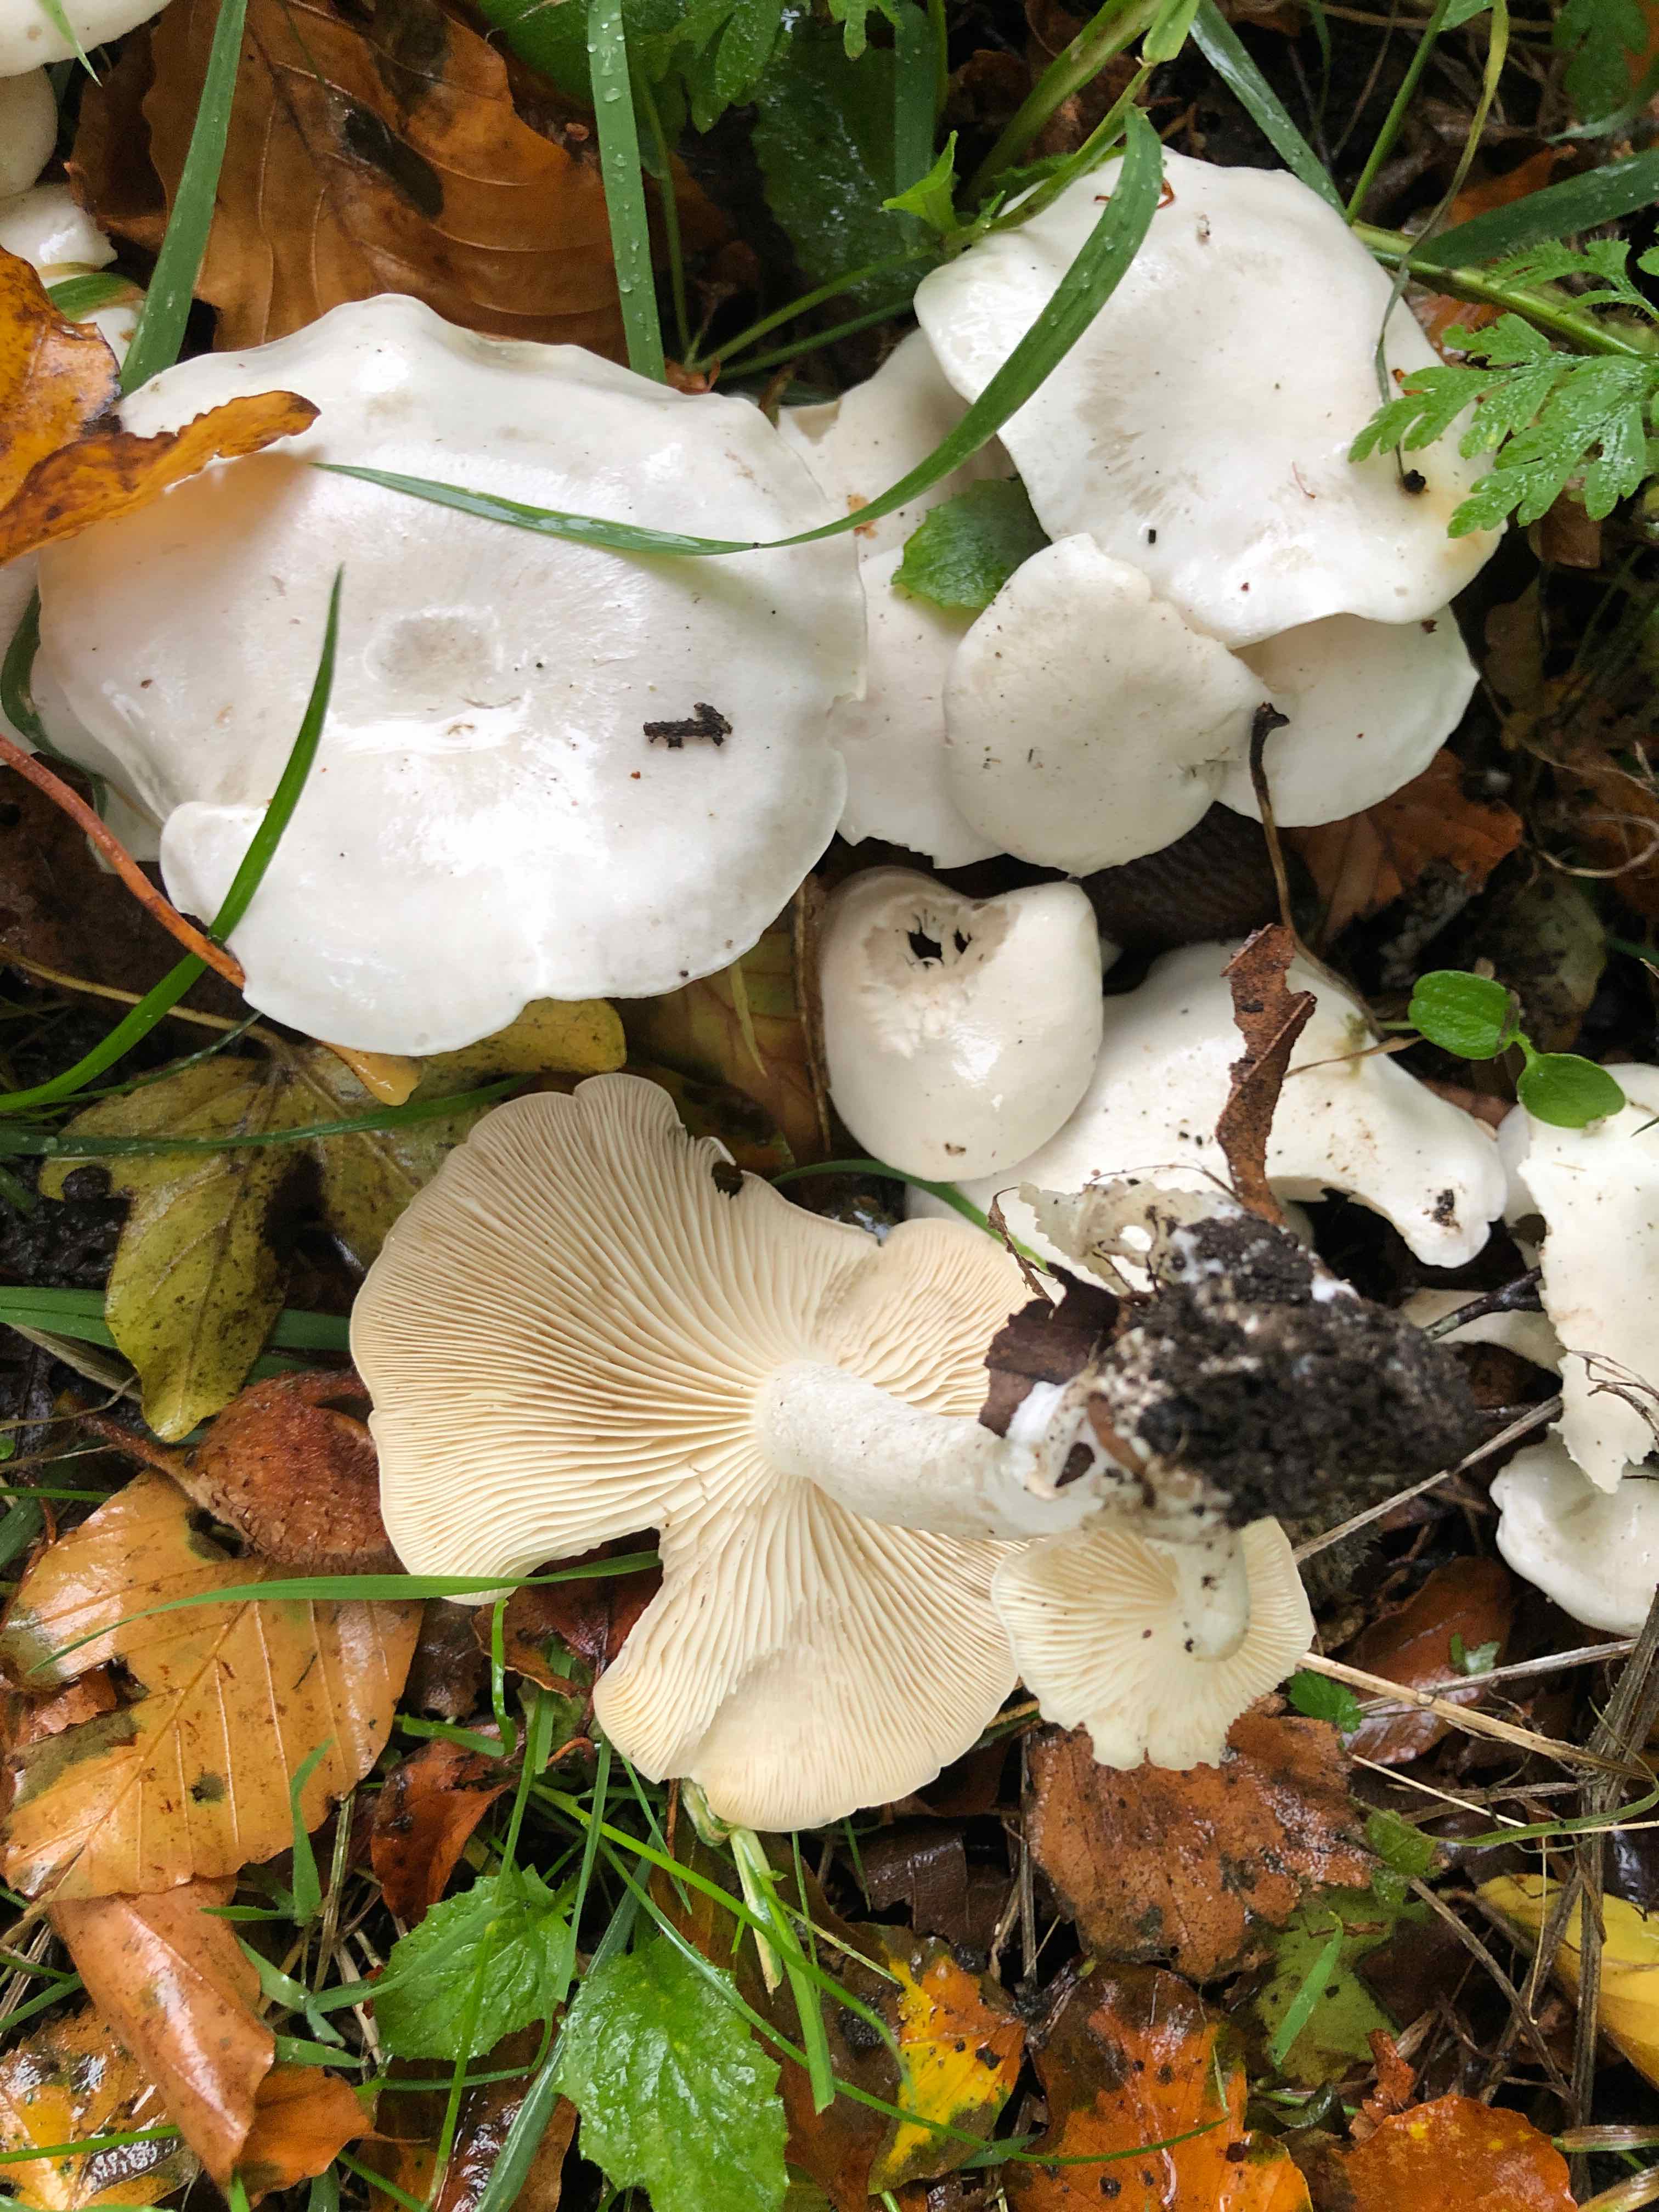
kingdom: Fungi
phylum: Basidiomycota
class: Agaricomycetes
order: Agaricales
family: Tricholomataceae
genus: Leucocybe
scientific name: Leucocybe connata
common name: knippe-tragthat
